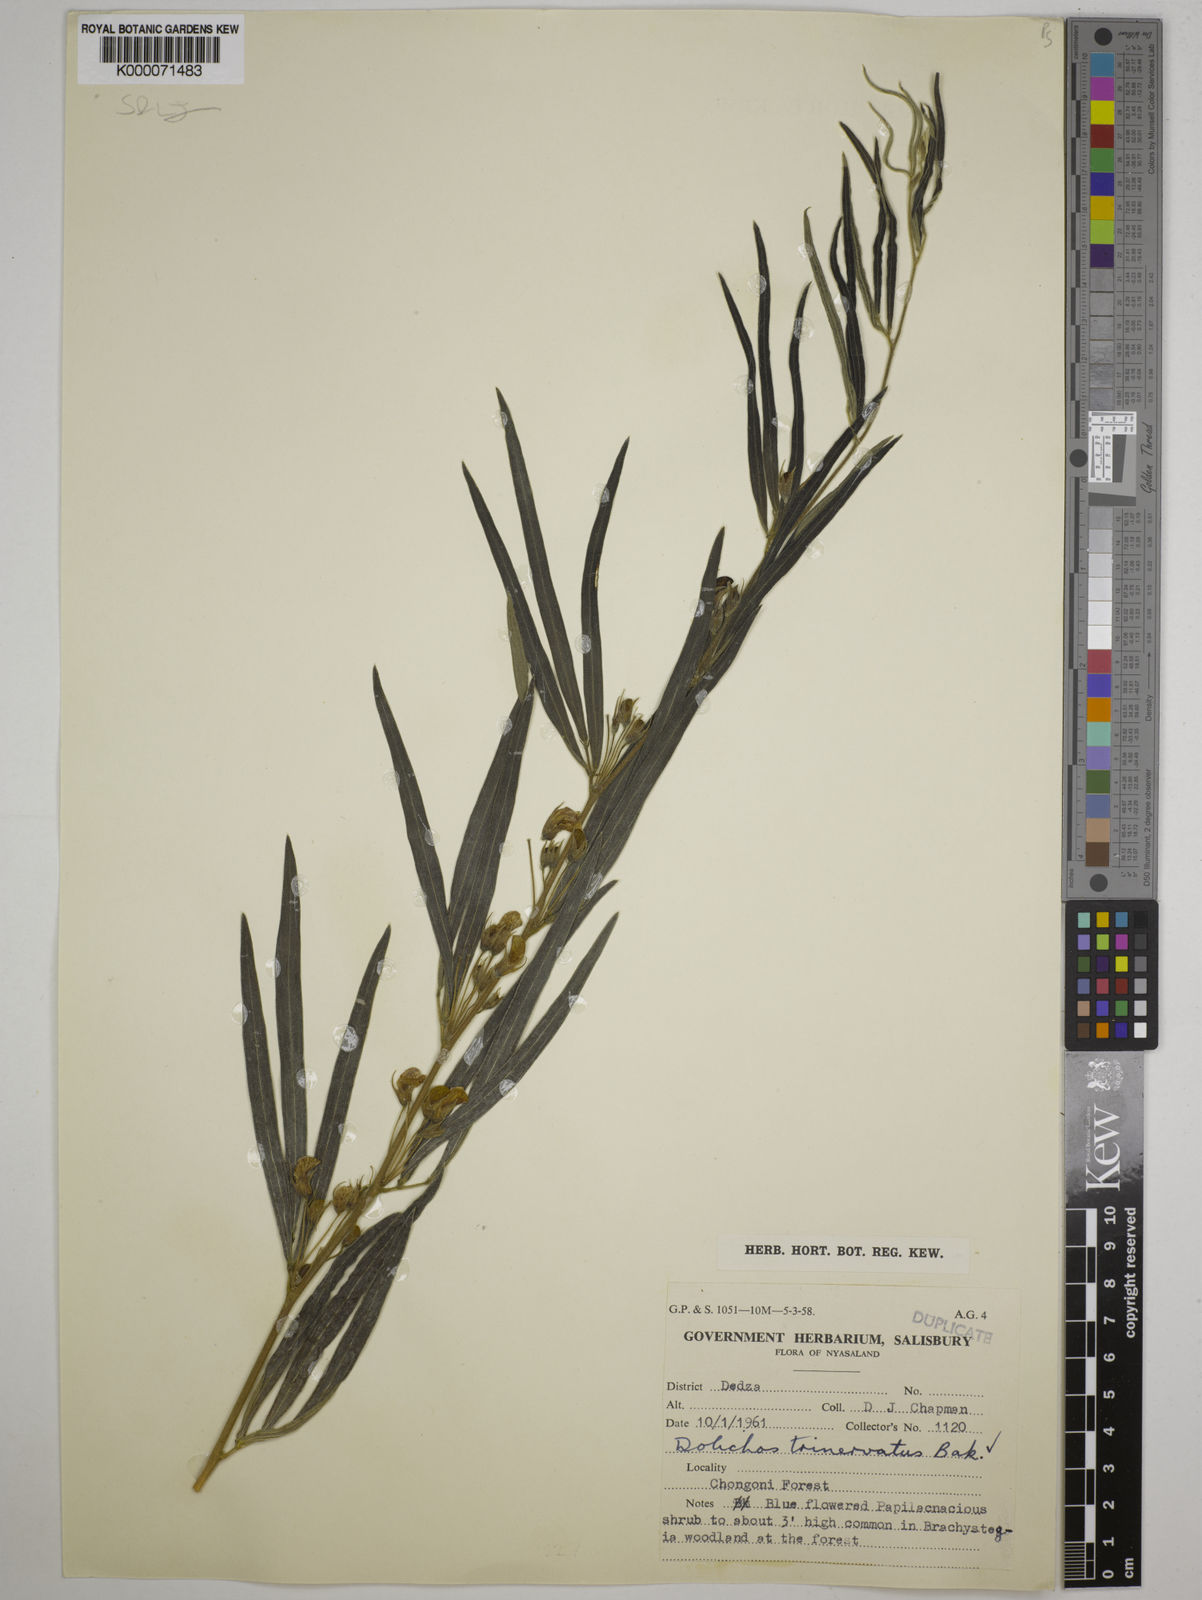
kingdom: Plantae
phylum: Tracheophyta
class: Magnoliopsida
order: Fabales
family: Fabaceae
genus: Dolichos
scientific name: Dolichos trinervatus
